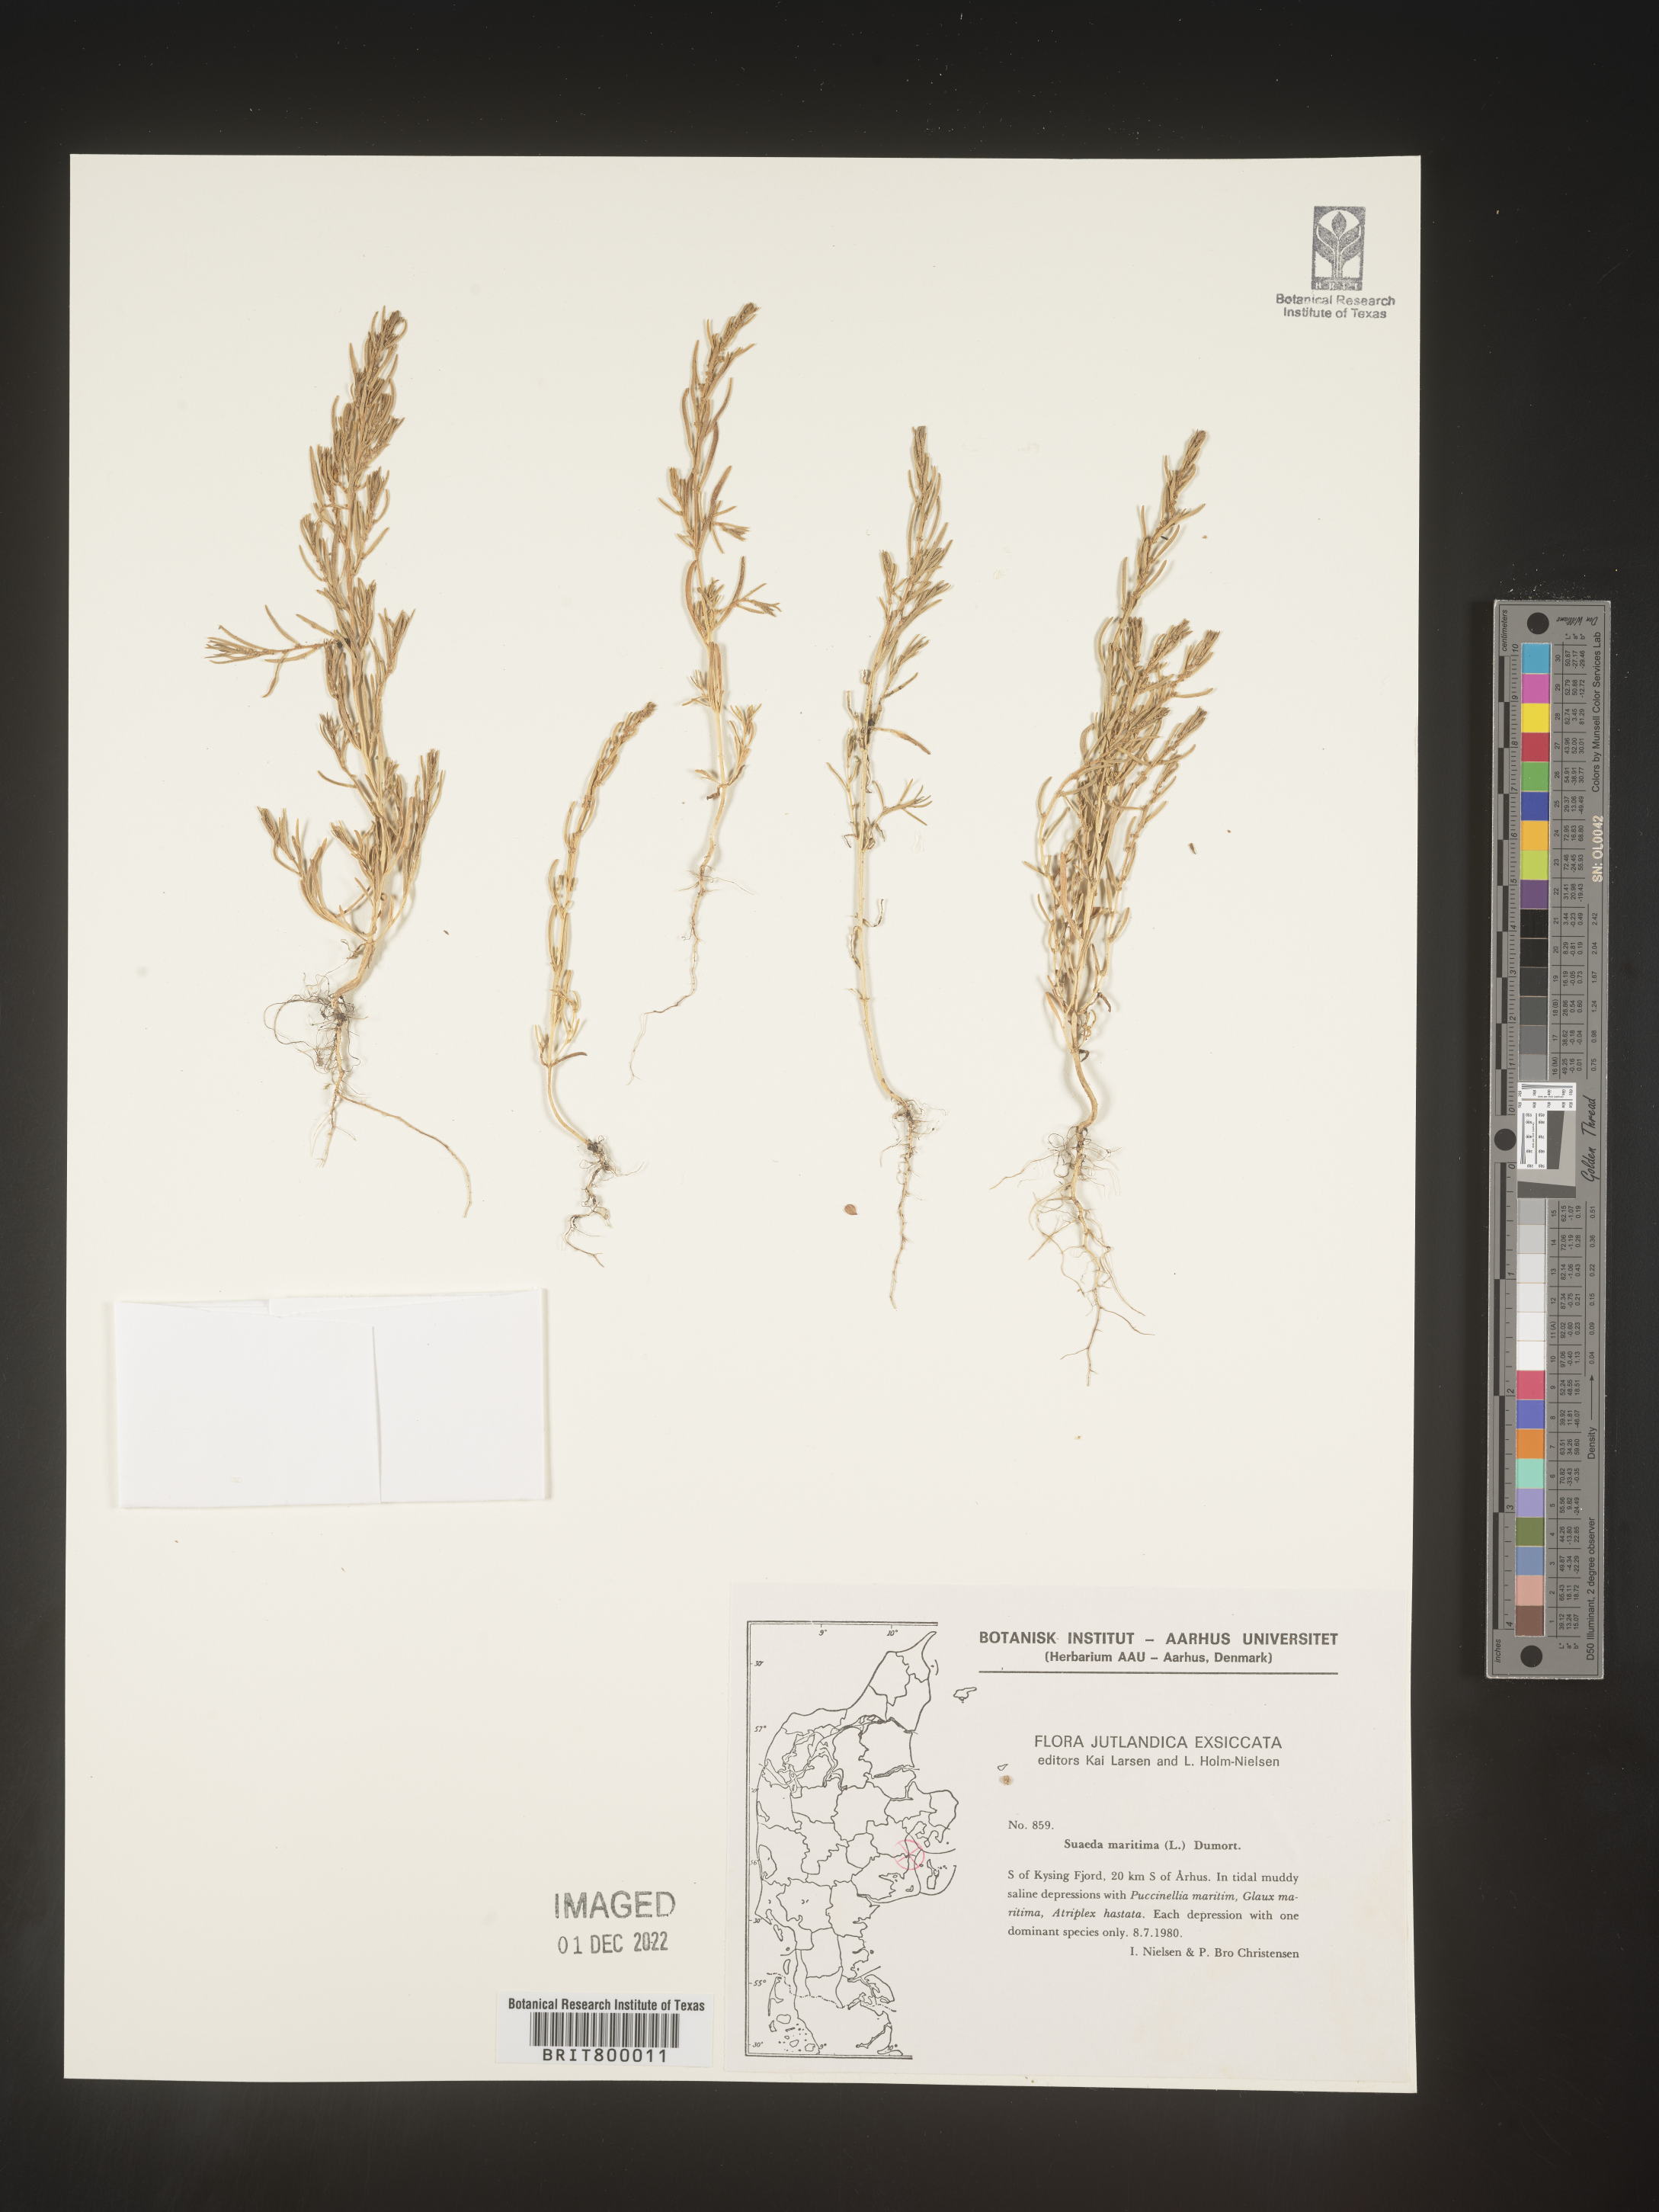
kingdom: Plantae
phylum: Tracheophyta
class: Magnoliopsida
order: Caryophyllales
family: Amaranthaceae
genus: Suaeda
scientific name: Suaeda
